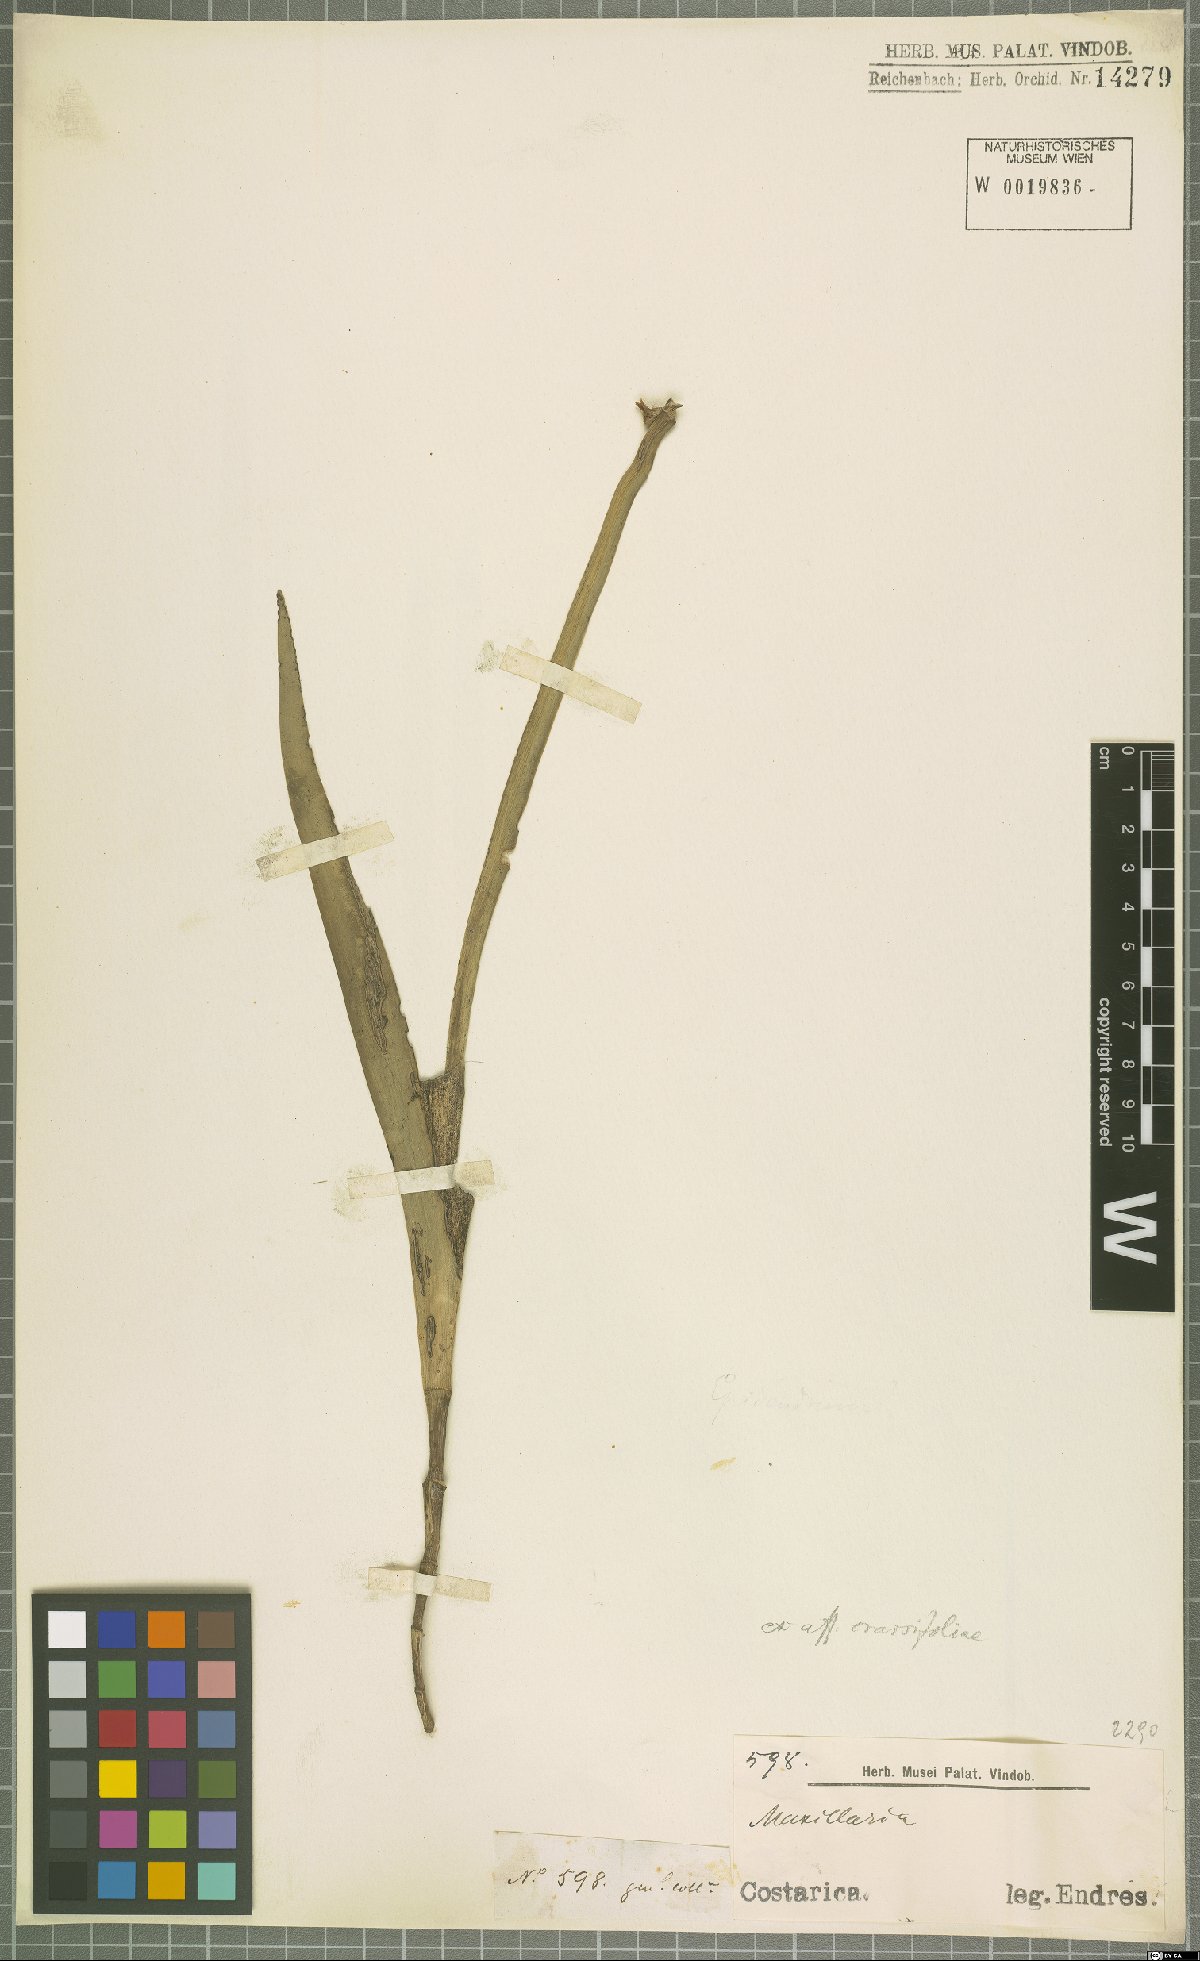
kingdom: Plantae
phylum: Tracheophyta
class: Liliopsida
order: Asparagales
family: Orchidaceae
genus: Jacquiniella
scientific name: Jacquiniella equitantifolia
